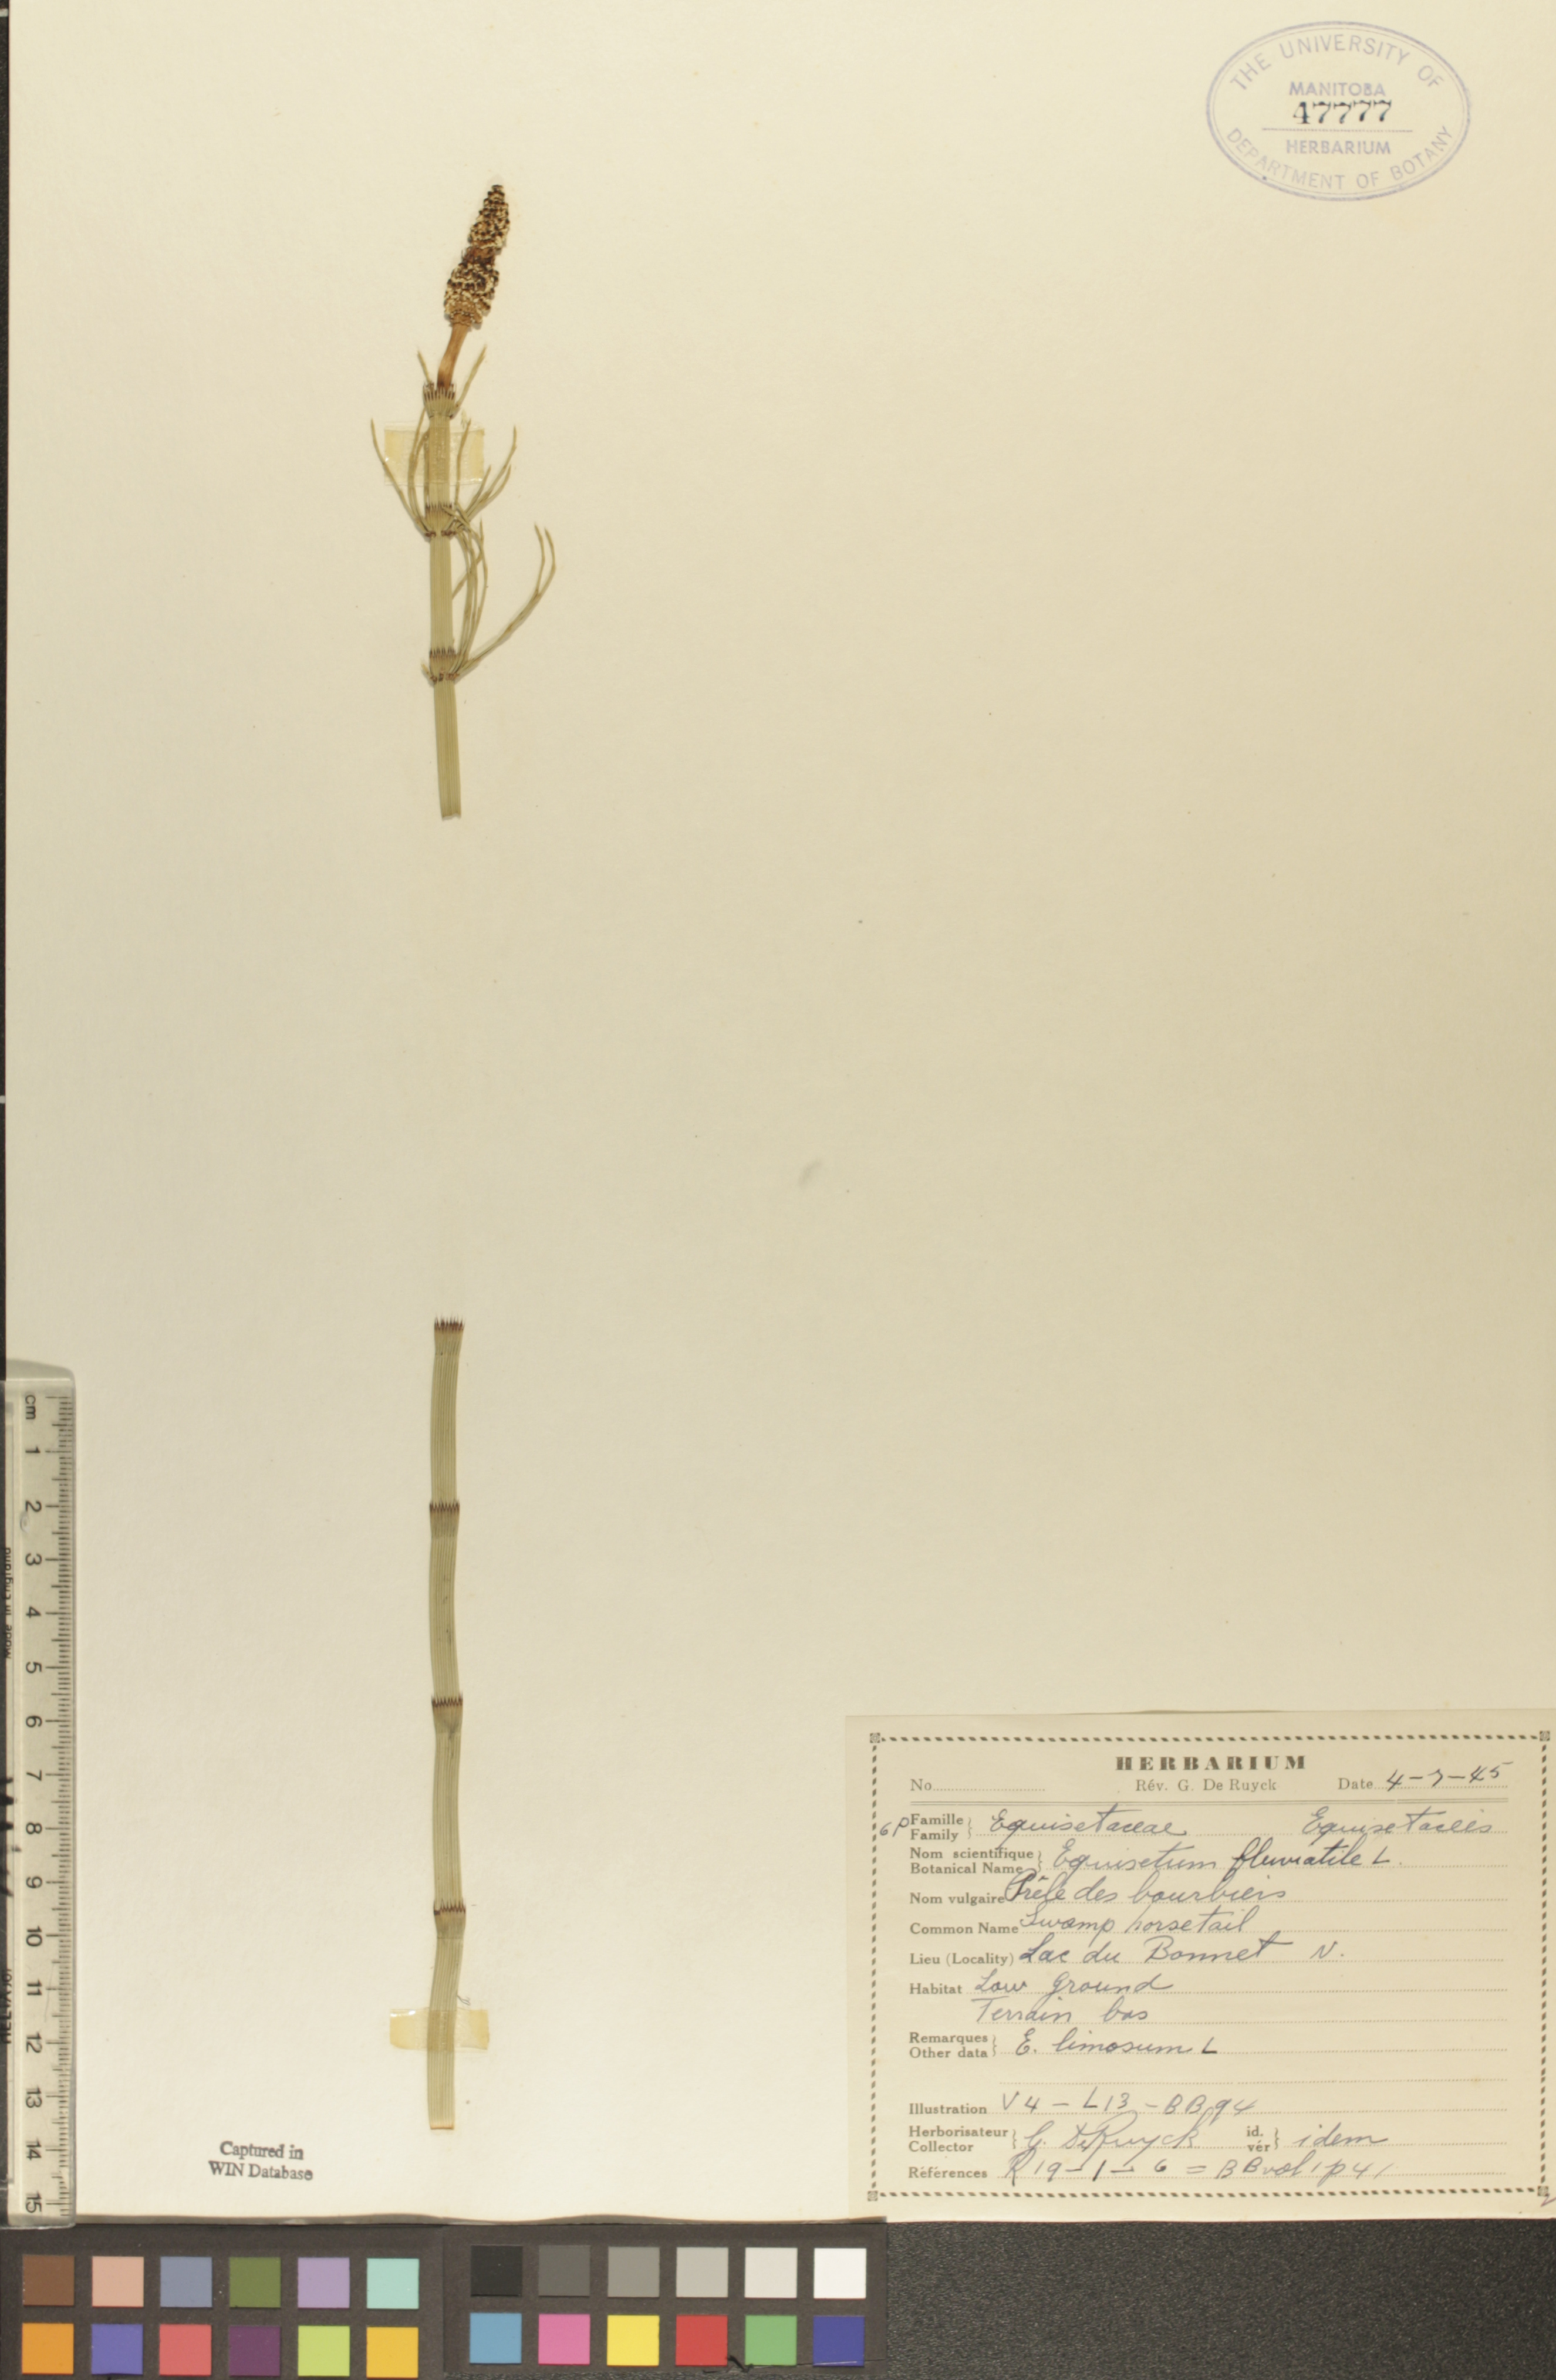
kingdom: Plantae
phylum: Tracheophyta
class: Polypodiopsida
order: Equisetales
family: Equisetaceae
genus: Equisetum
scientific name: Equisetum fluviatile
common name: Water horsetail
